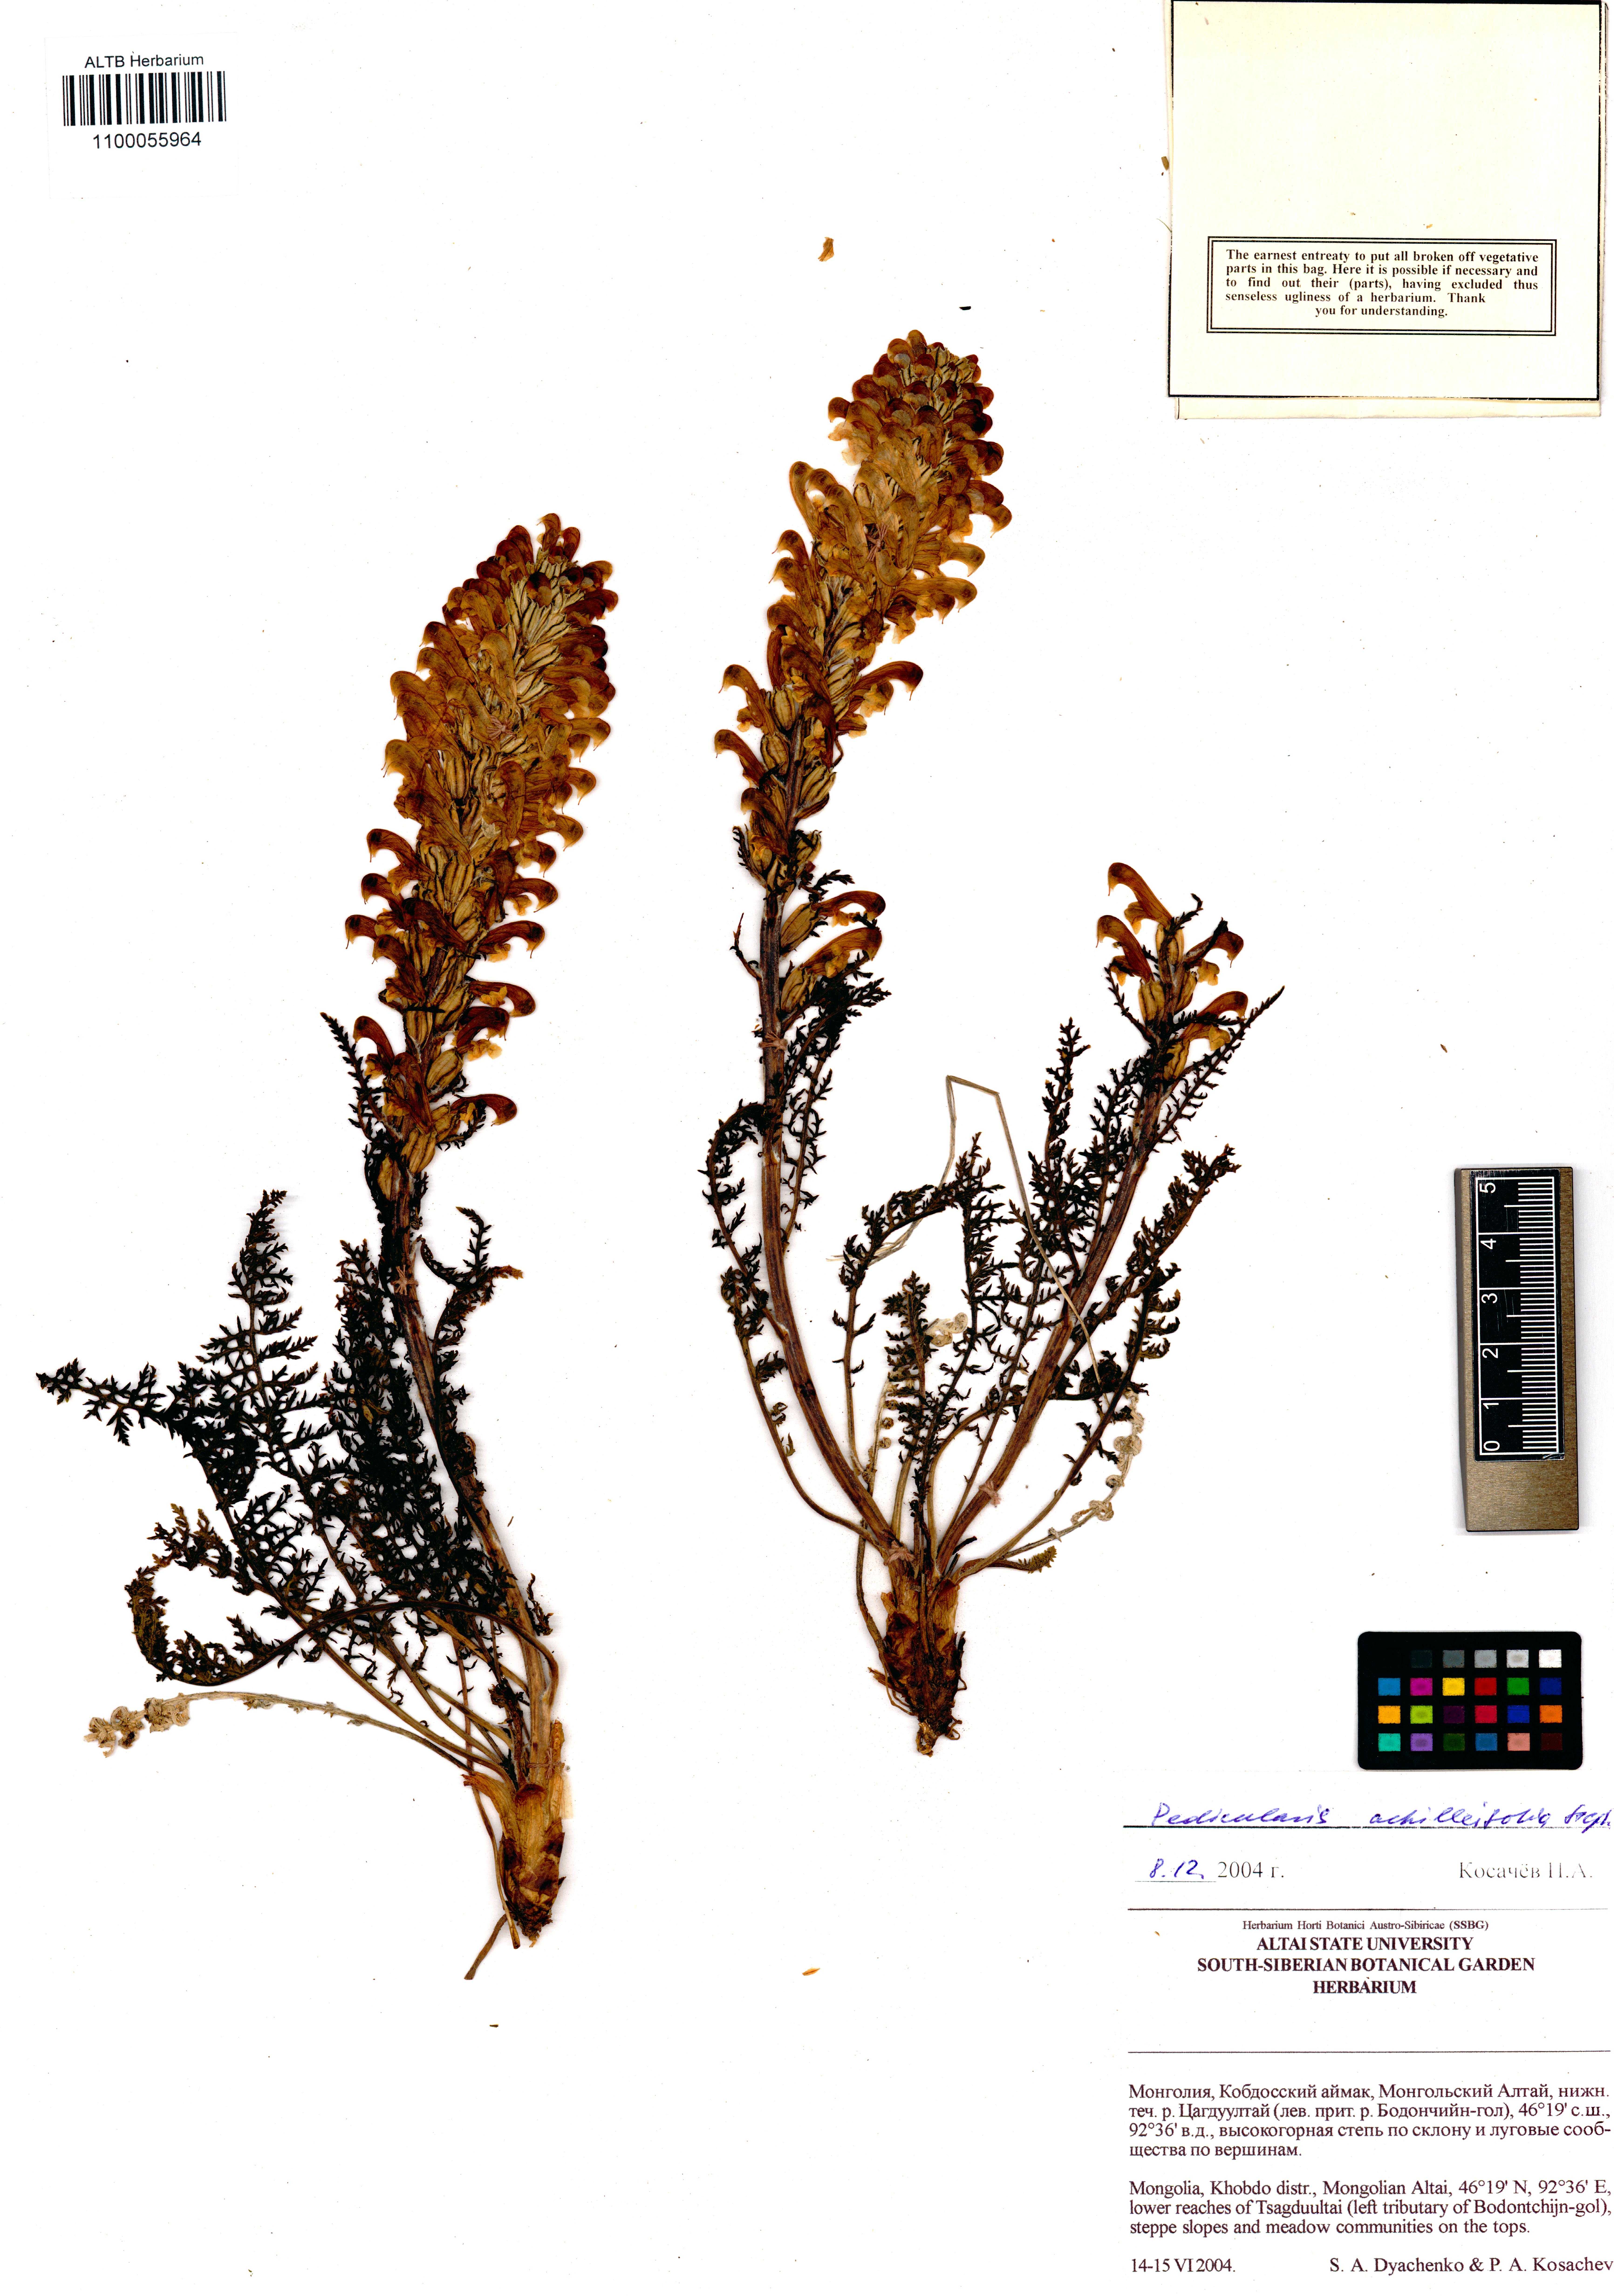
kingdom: Plantae
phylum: Tracheophyta
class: Magnoliopsida
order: Lamiales
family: Orobanchaceae
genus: Pedicularis
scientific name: Pedicularis achilleifolia
